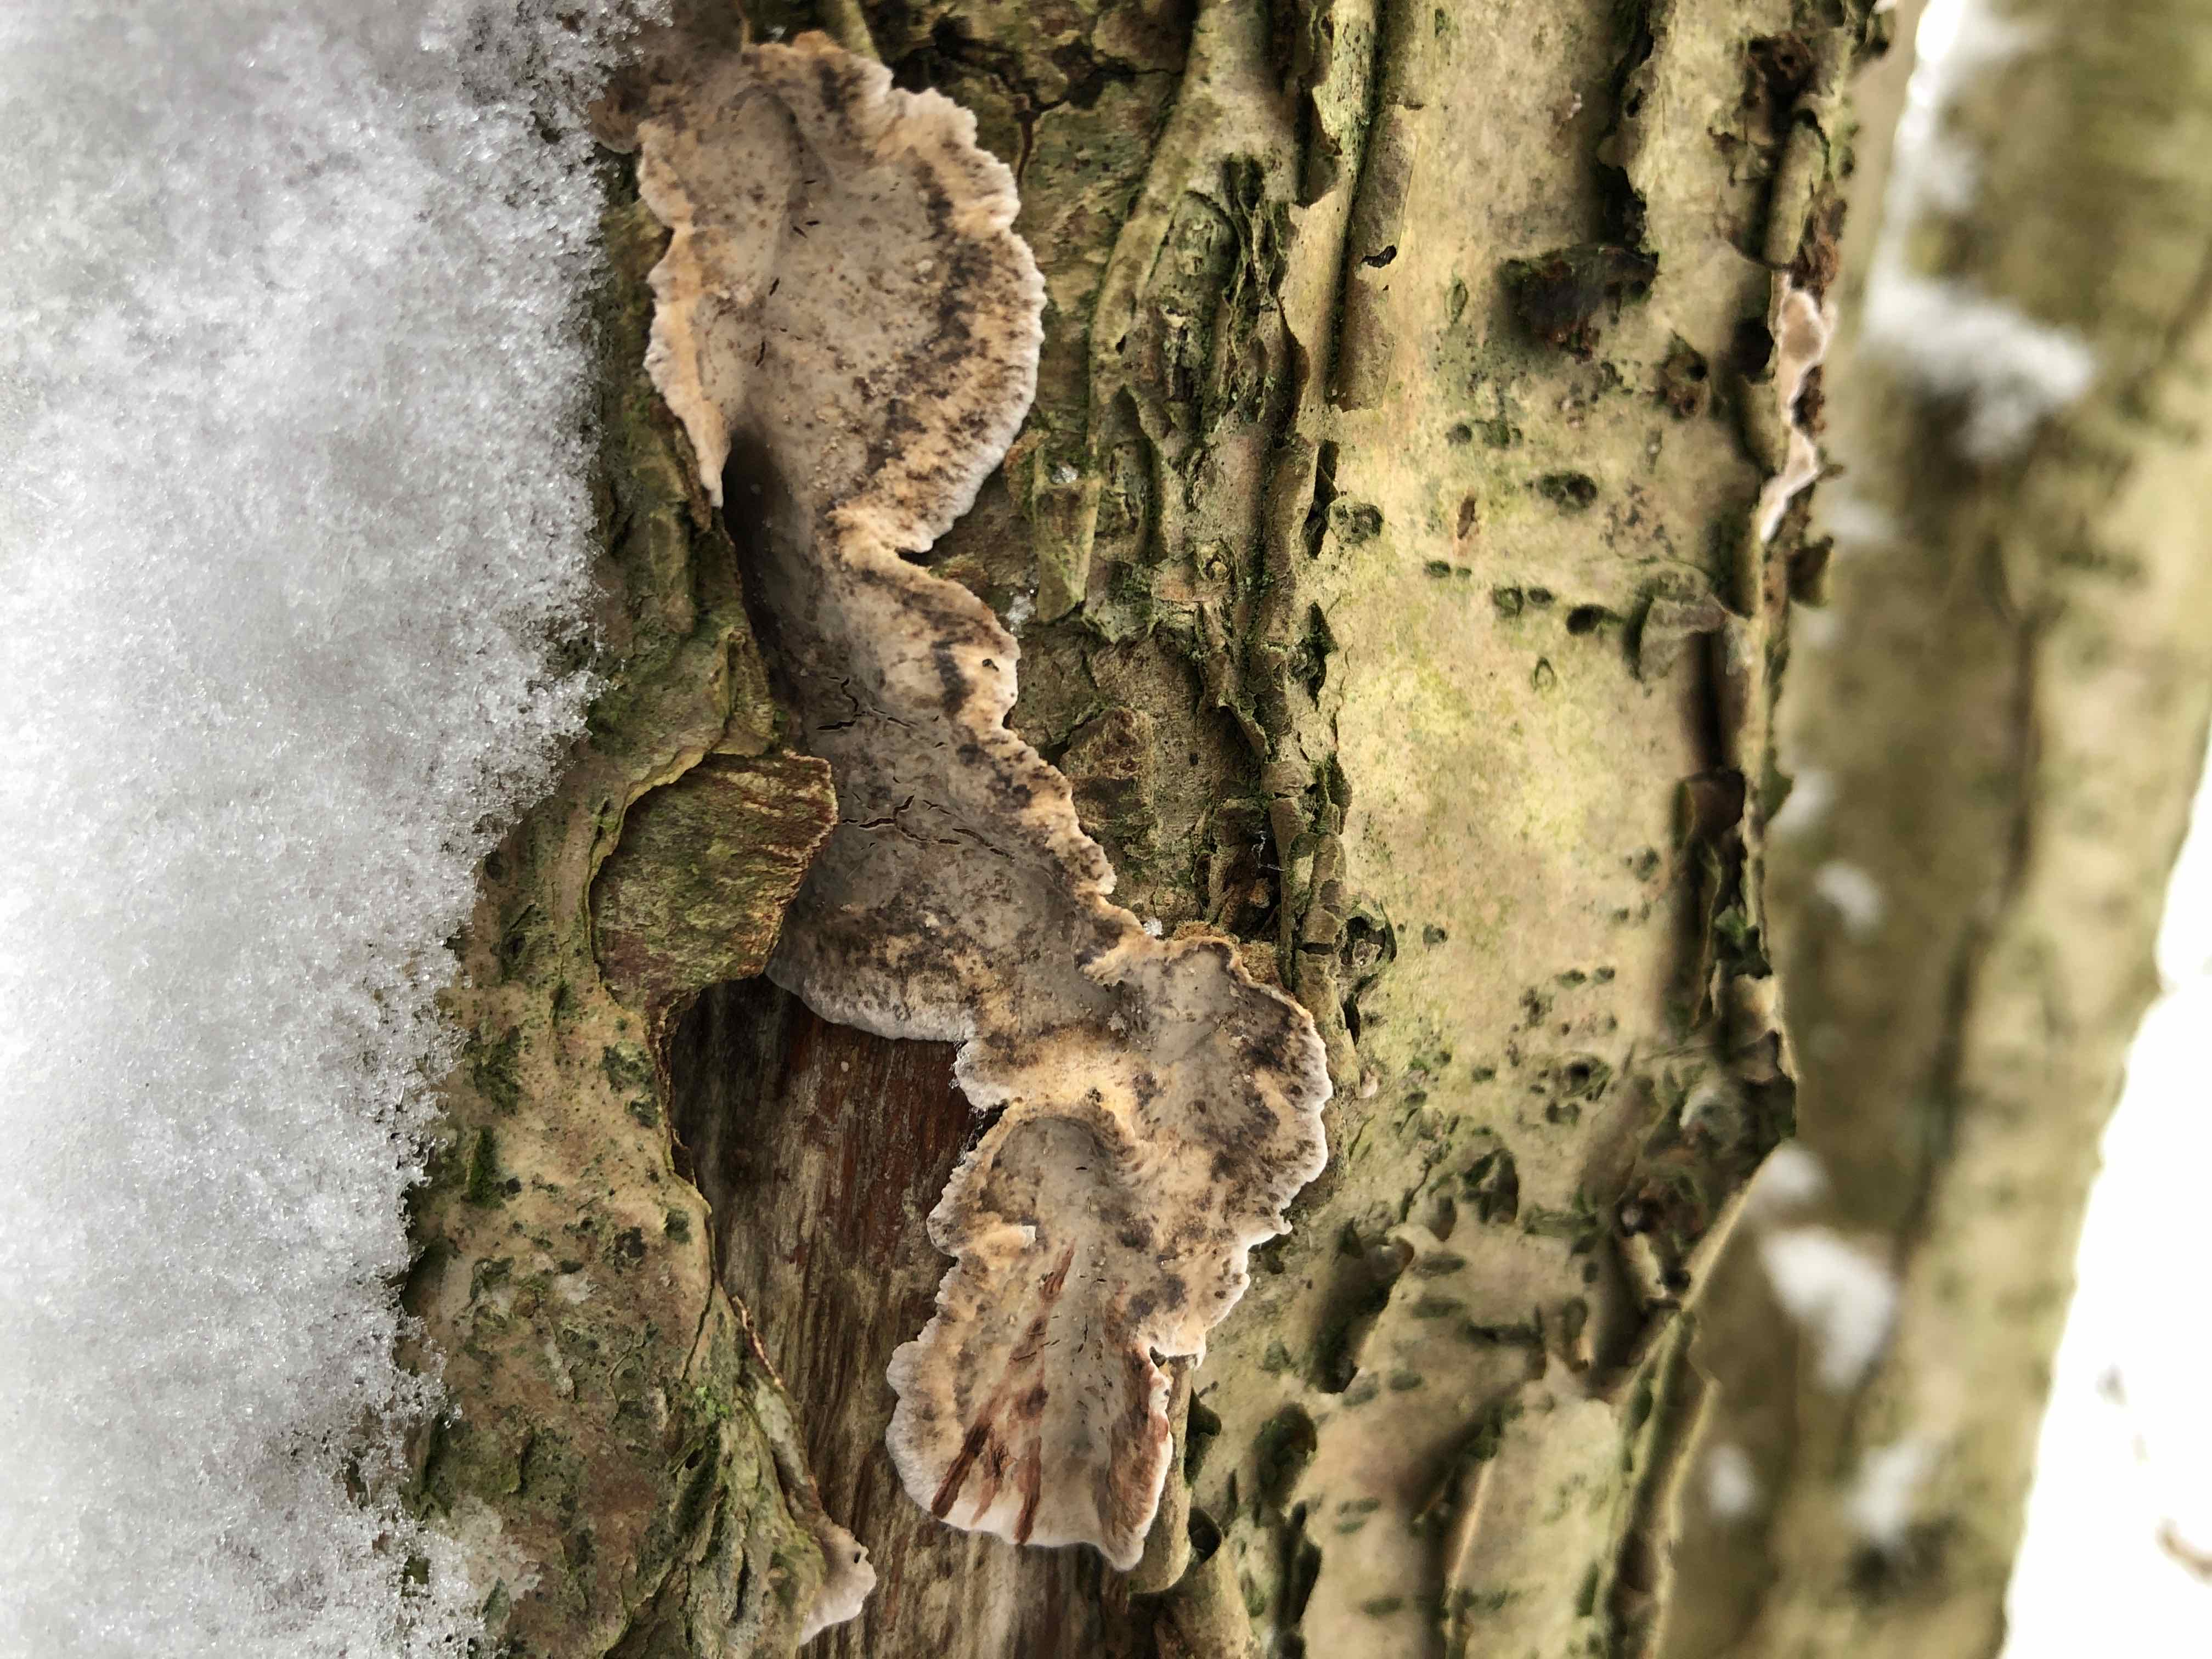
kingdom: Fungi
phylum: Basidiomycota
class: Agaricomycetes
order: Russulales
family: Stereaceae
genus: Stereum
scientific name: Stereum rugosum
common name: rynket lædersvamp
